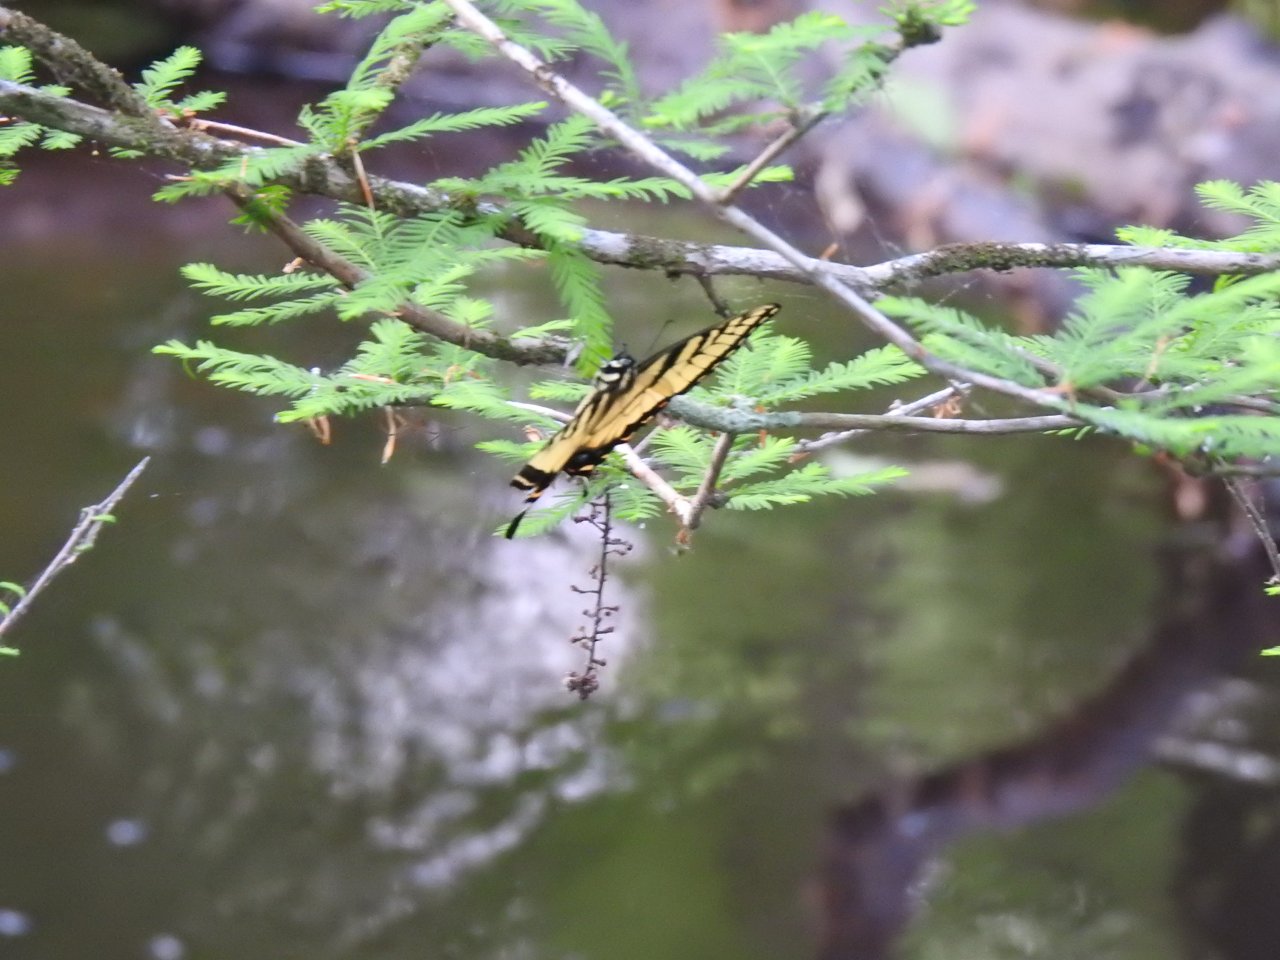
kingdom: Animalia
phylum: Arthropoda
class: Insecta
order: Lepidoptera
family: Papilionidae
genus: Pterourus
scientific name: Pterourus glaucus
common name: Eastern Tiger Swallowtail
